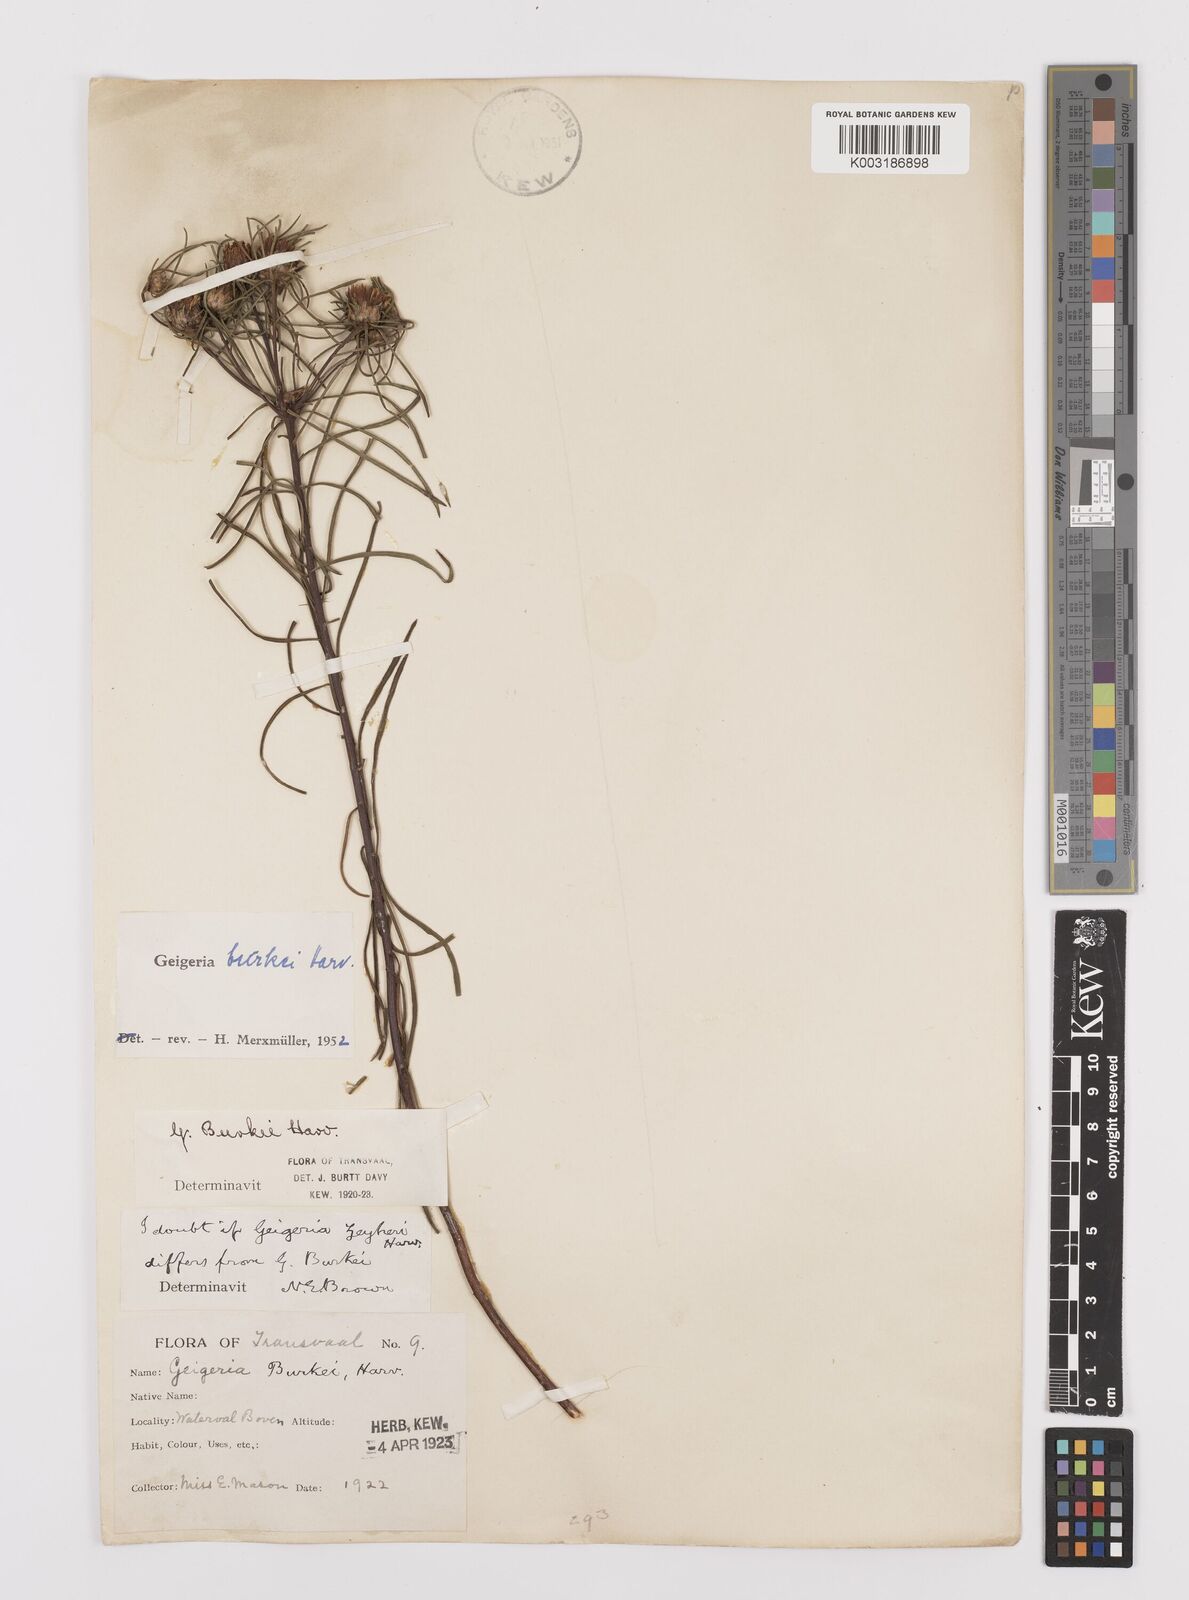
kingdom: Plantae
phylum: Tracheophyta
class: Magnoliopsida
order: Asterales
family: Asteraceae
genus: Geigeria
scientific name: Geigeria burkei
